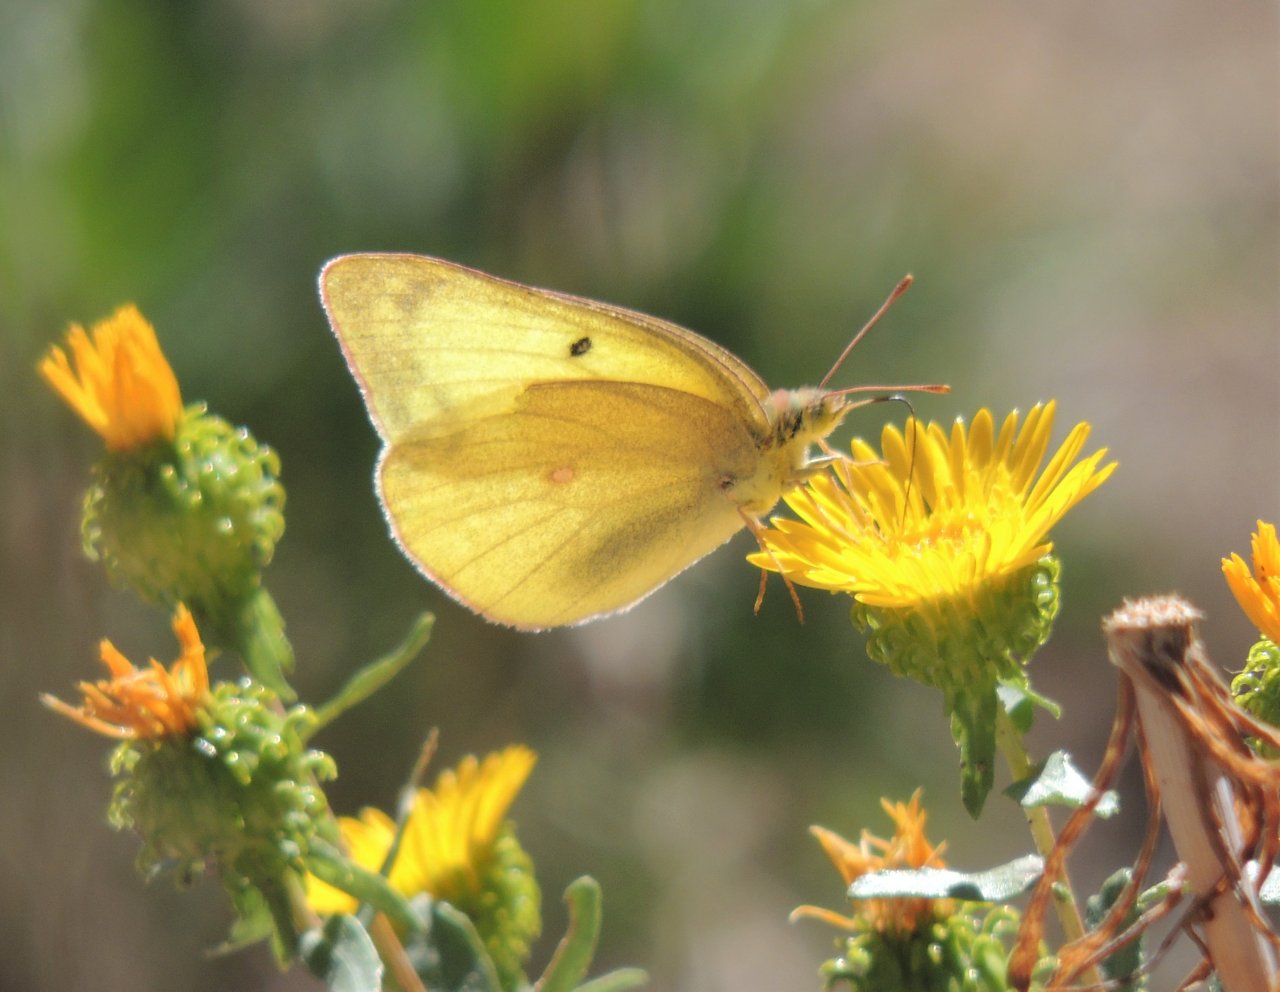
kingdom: Animalia
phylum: Arthropoda
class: Insecta
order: Lepidoptera
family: Pieridae
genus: Colias
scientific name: Colias alexandra
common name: Queen Alexandra's Sulphur
